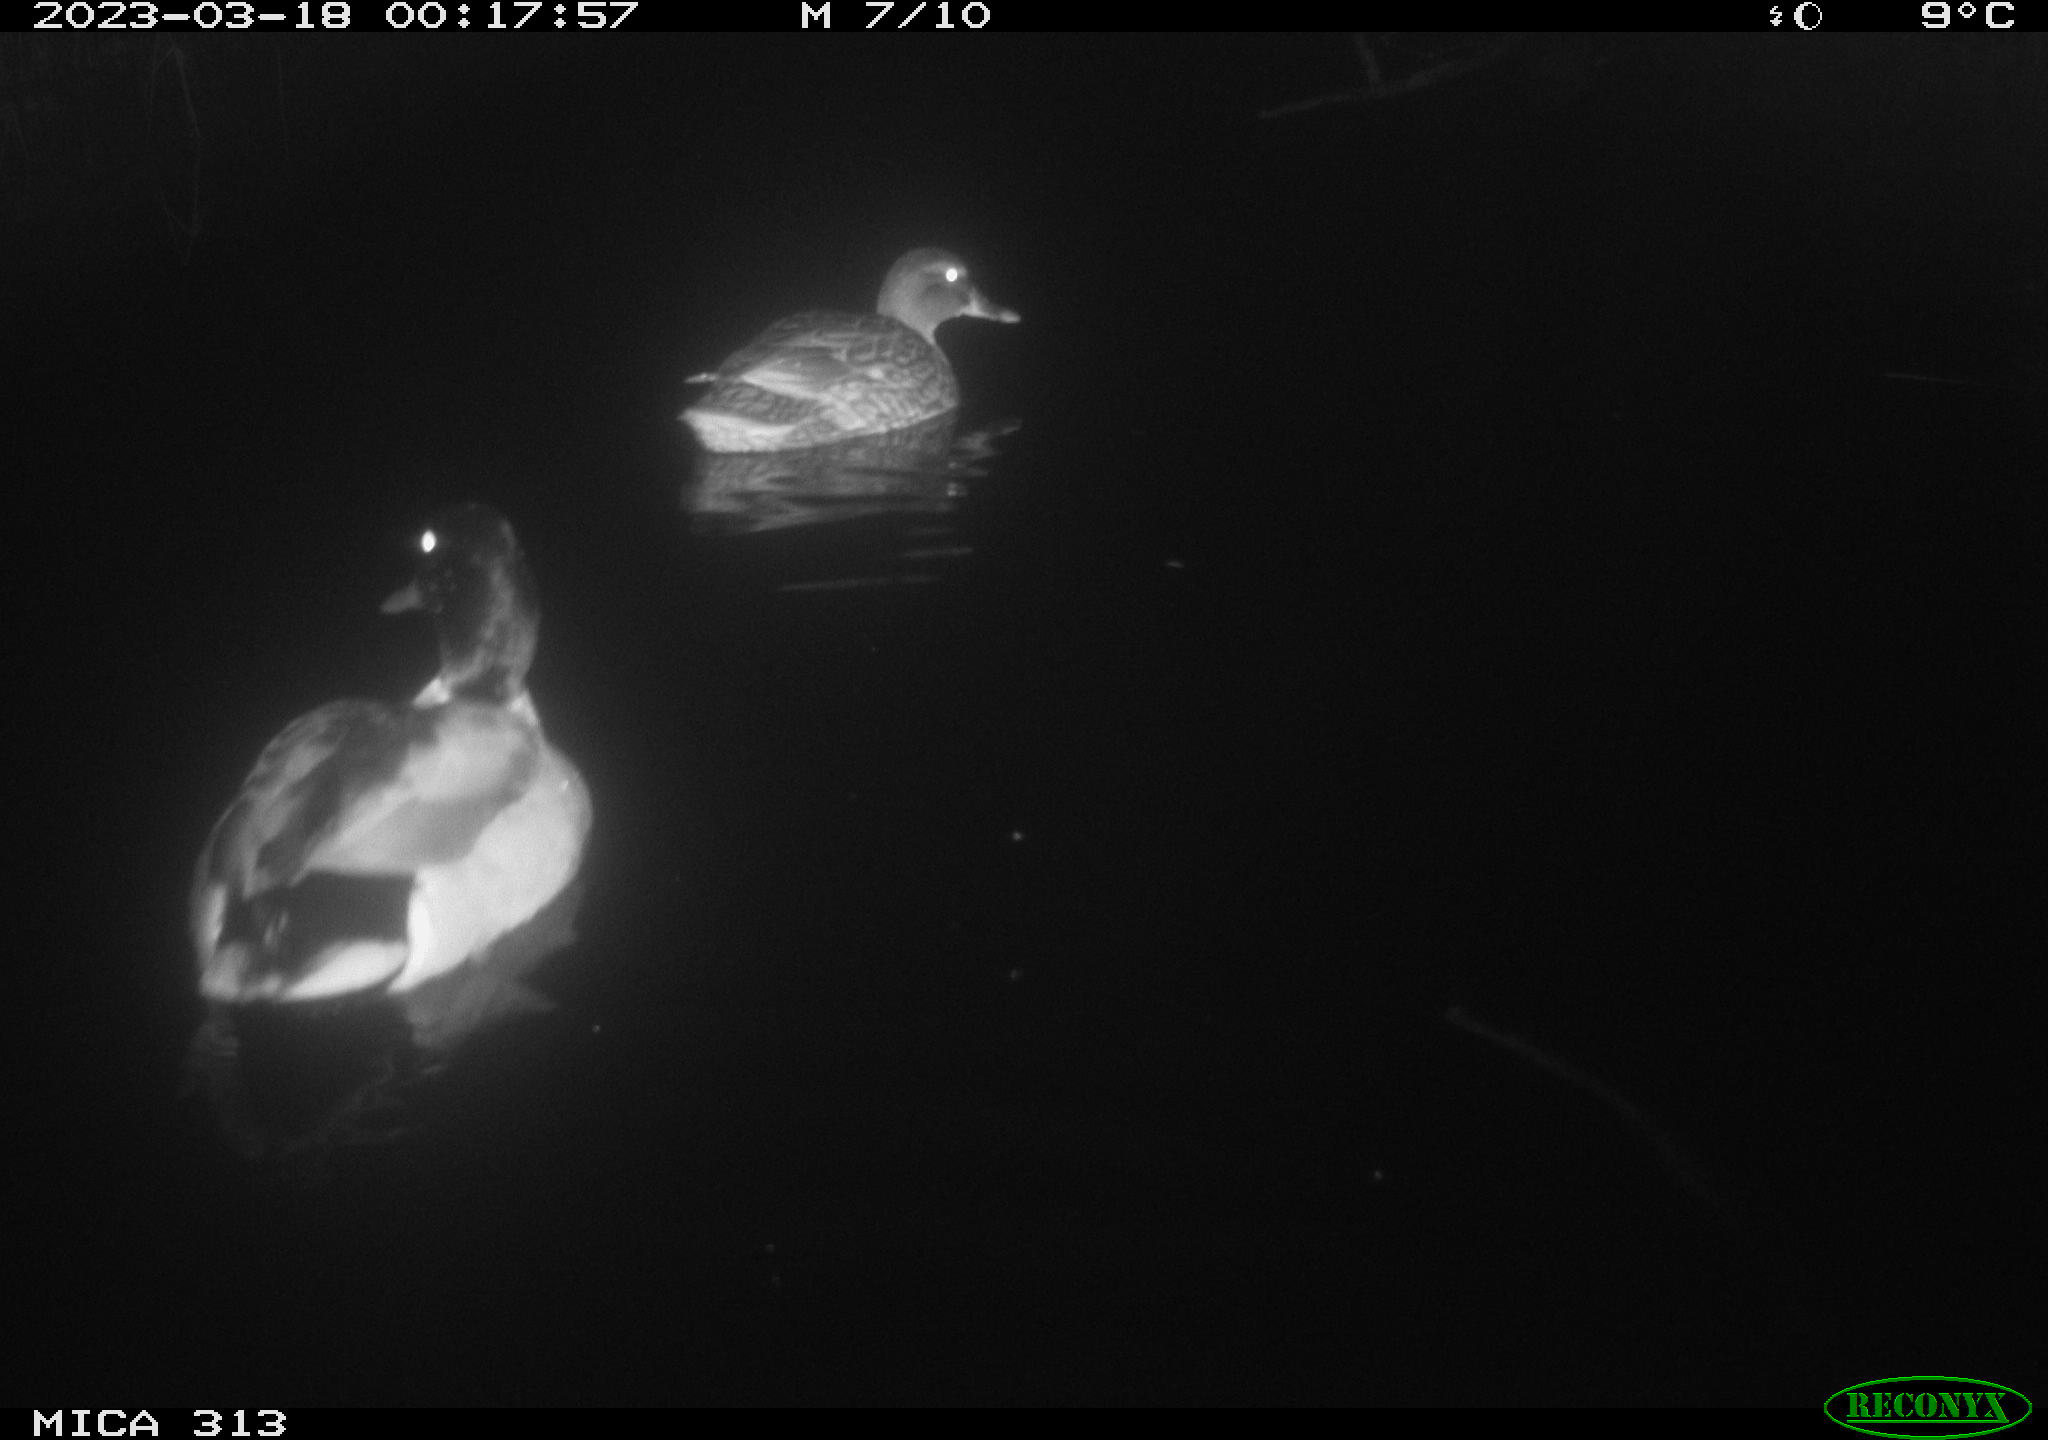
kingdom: Animalia
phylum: Chordata
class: Aves
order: Anseriformes
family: Anatidae
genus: Anas
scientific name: Anas
